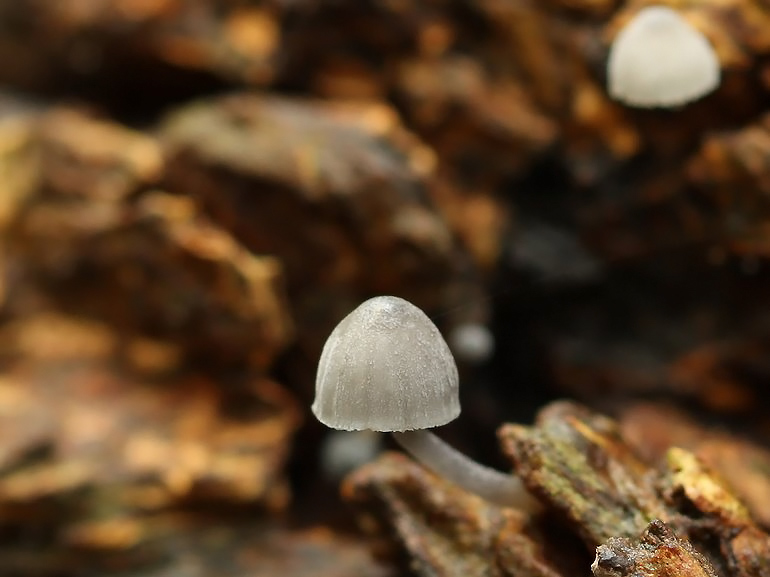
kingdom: Fungi
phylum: Basidiomycota
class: Agaricomycetes
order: Agaricales
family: Mycenaceae
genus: Mycena
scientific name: Mycena pseudocorticola
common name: gråblå bark-huesvamp
